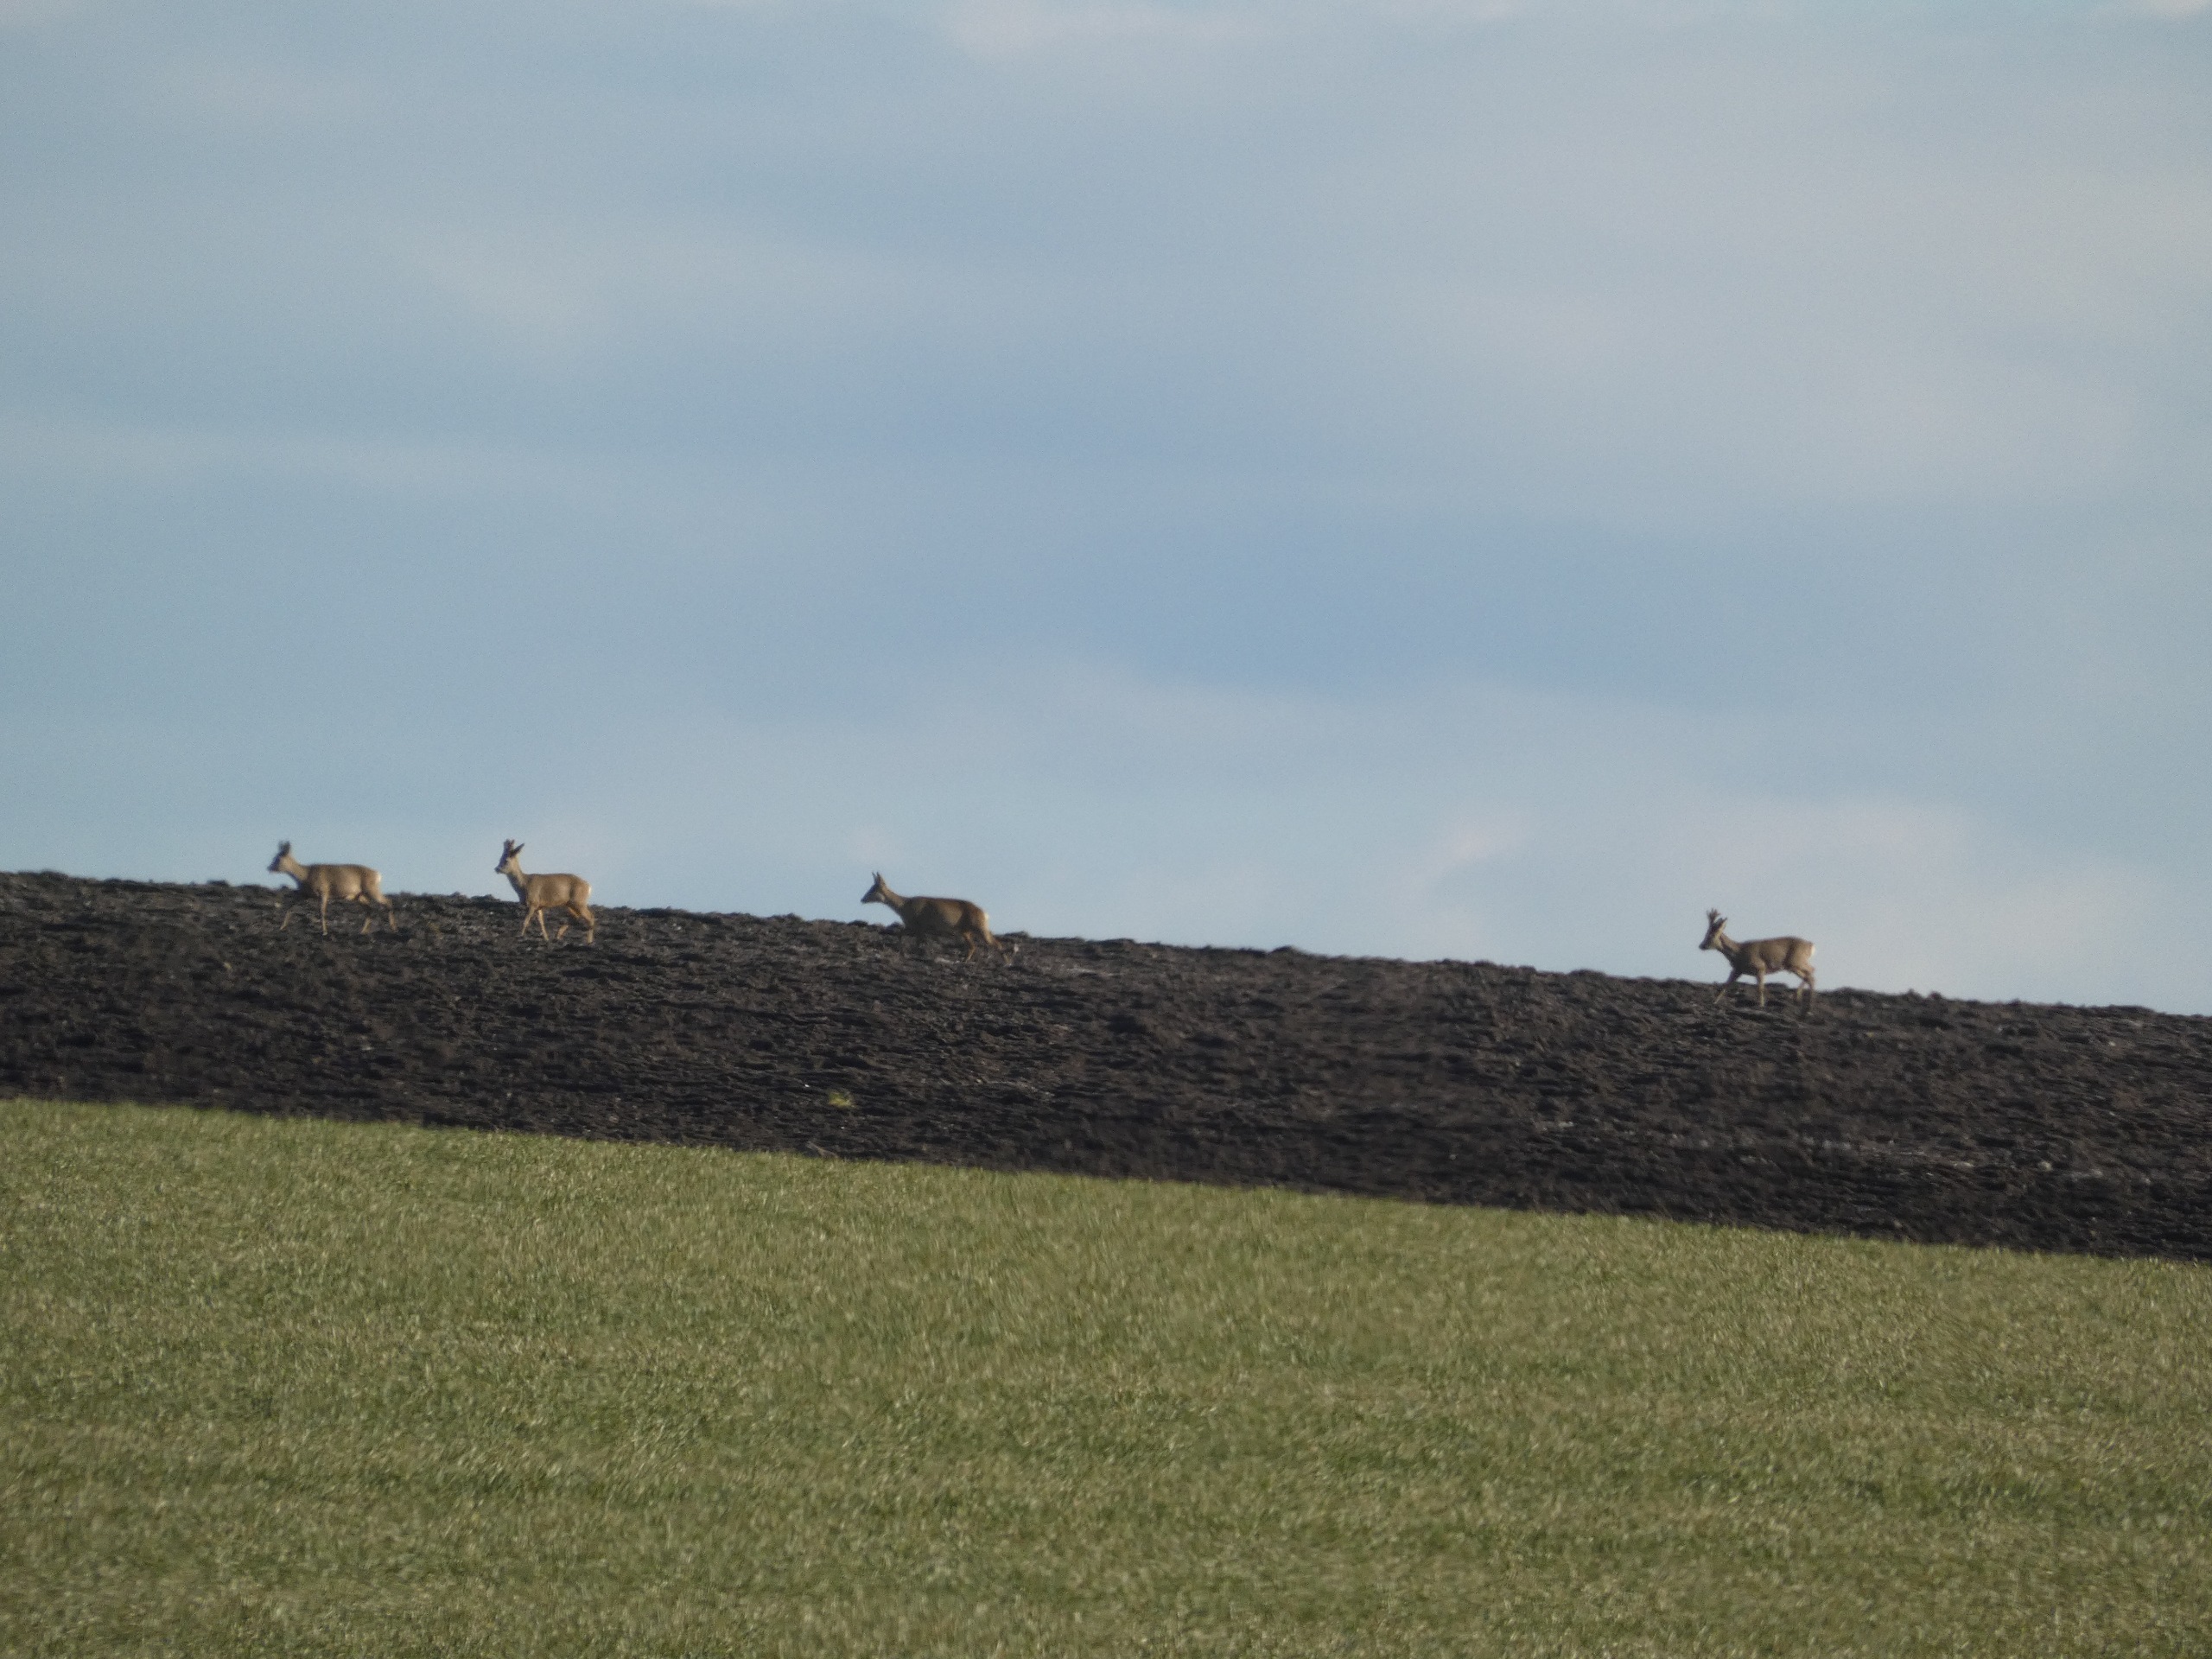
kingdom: Animalia
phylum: Chordata
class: Mammalia
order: Artiodactyla
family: Cervidae
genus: Capreolus
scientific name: Capreolus capreolus
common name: Rådyr
